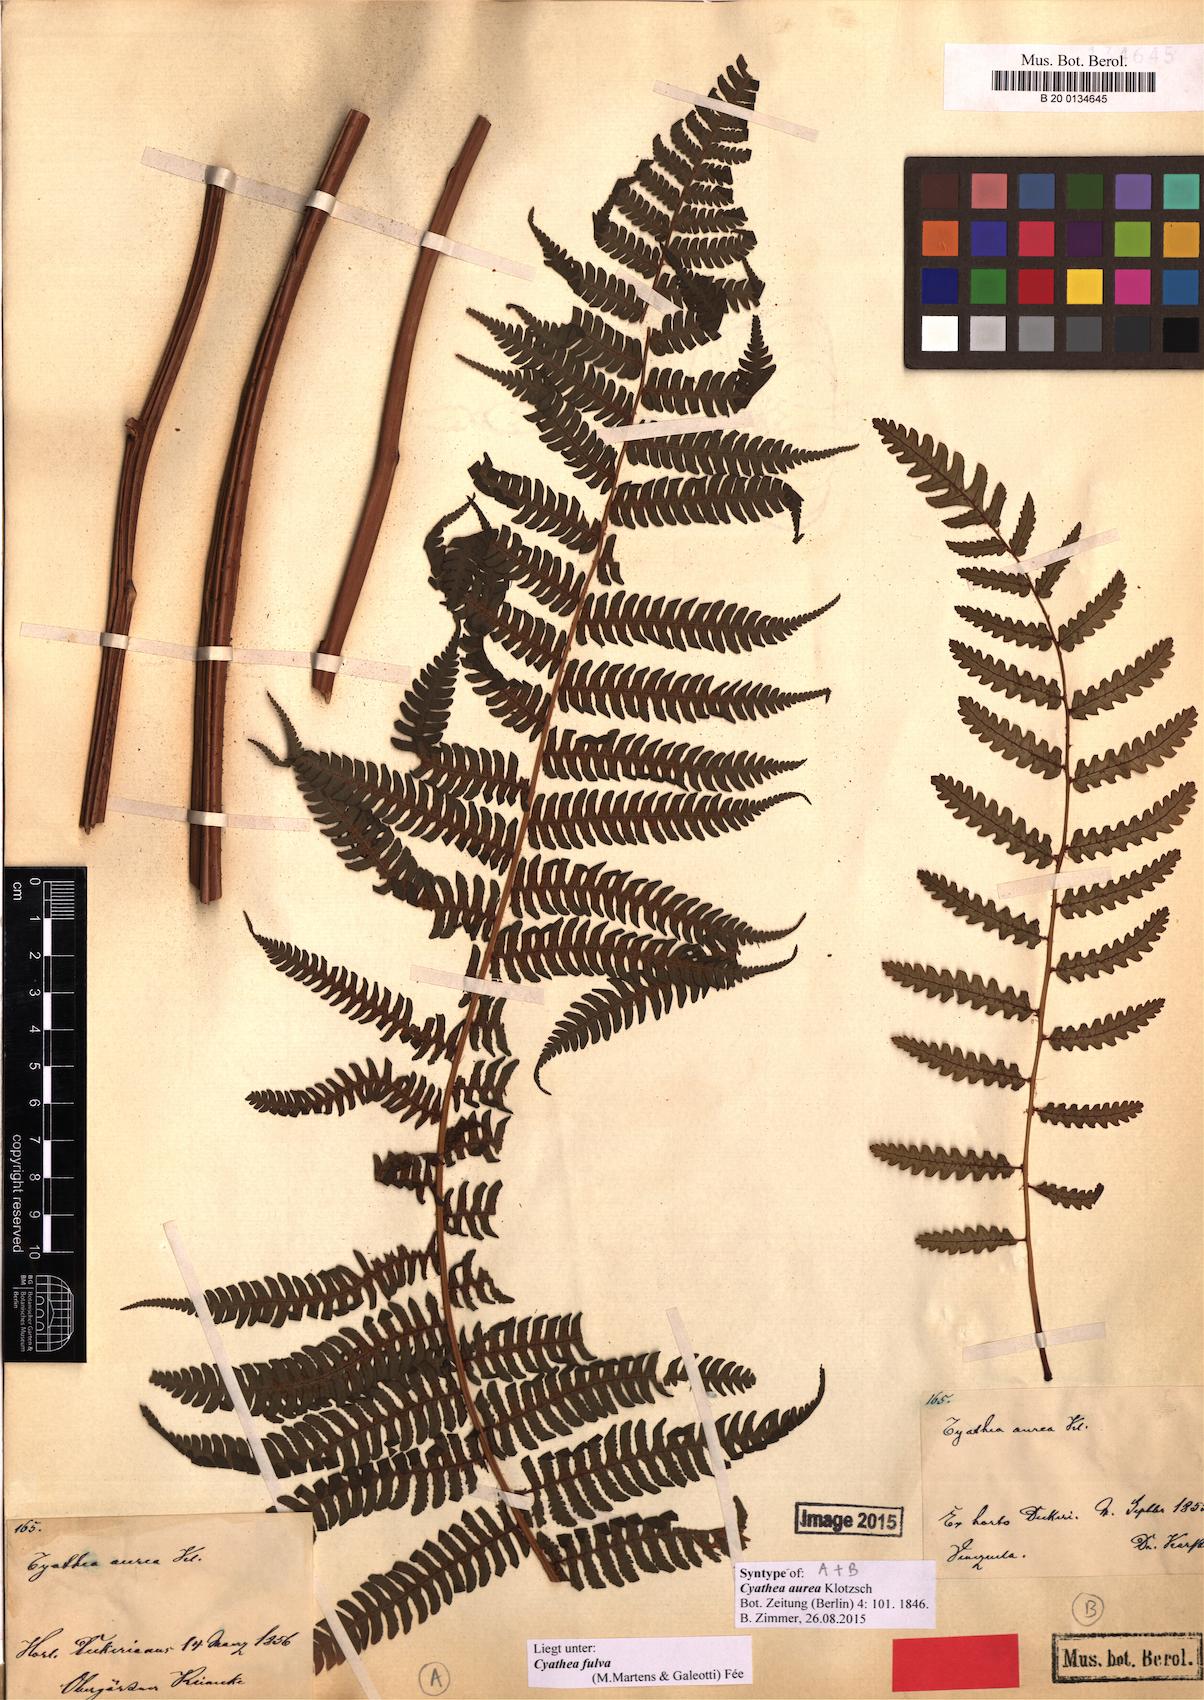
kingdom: Plantae
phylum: Tracheophyta
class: Polypodiopsida
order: Cyatheales
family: Cyatheaceae
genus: Cyathea
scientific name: Cyathea frondosa
